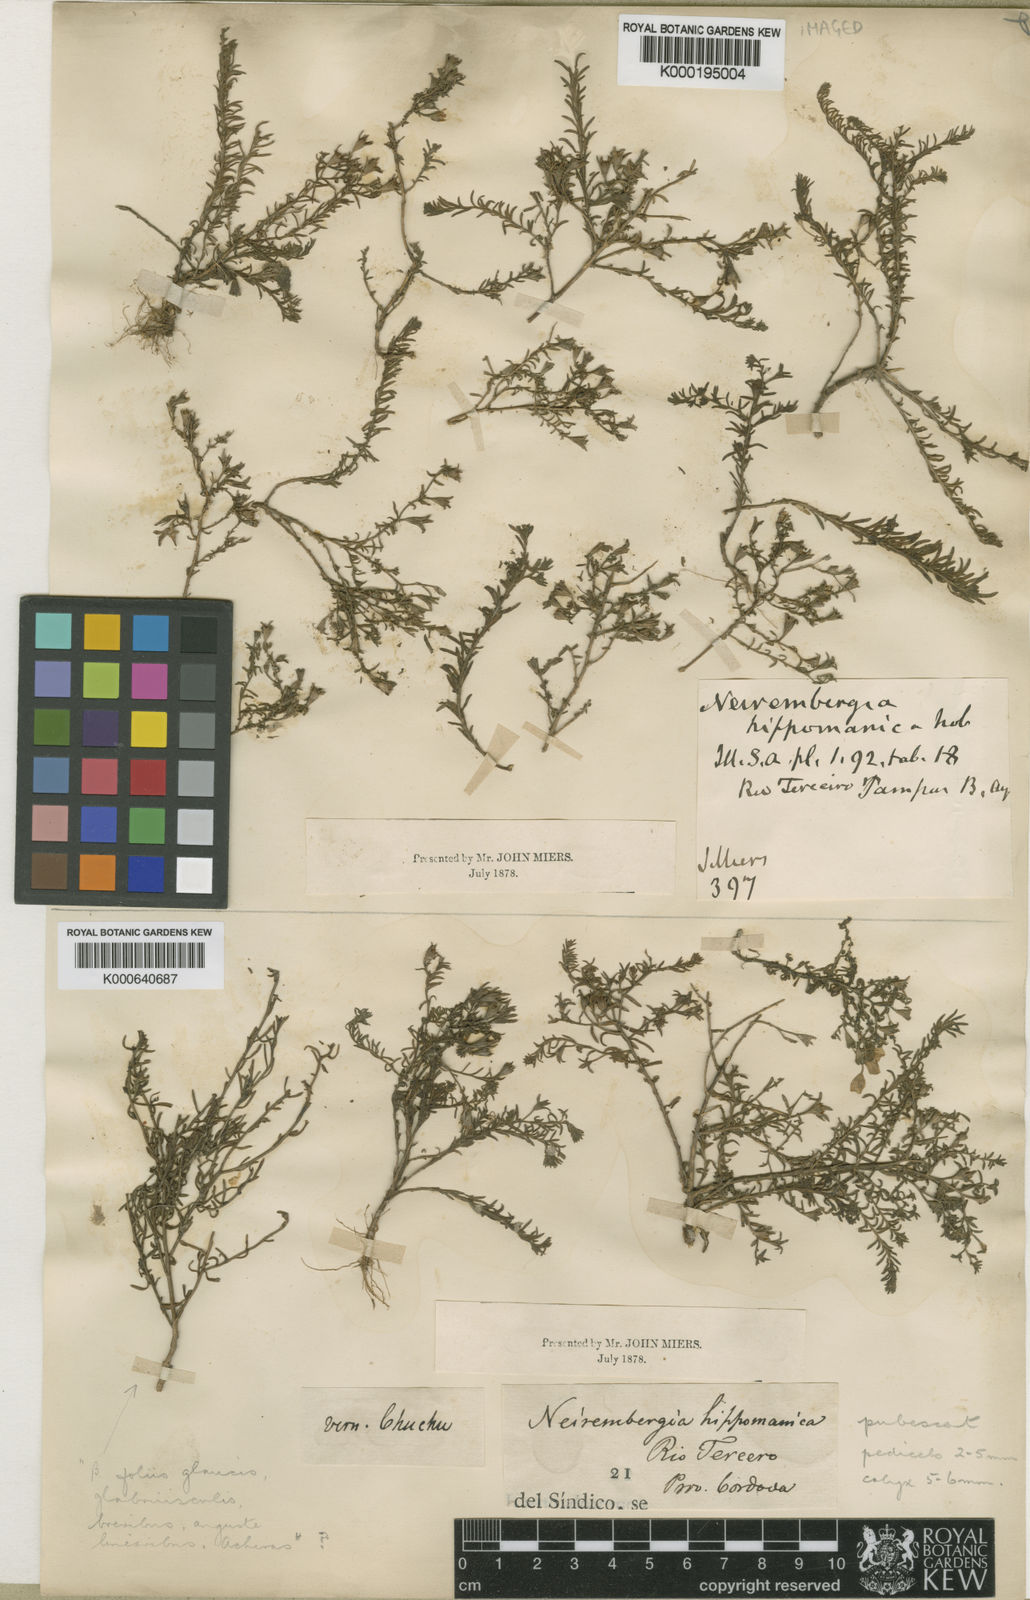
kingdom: Plantae
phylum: Tracheophyta
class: Magnoliopsida
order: Solanales
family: Solanaceae
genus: Nierembergia
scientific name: Nierembergia linariifolia
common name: Dwarf cupflower
